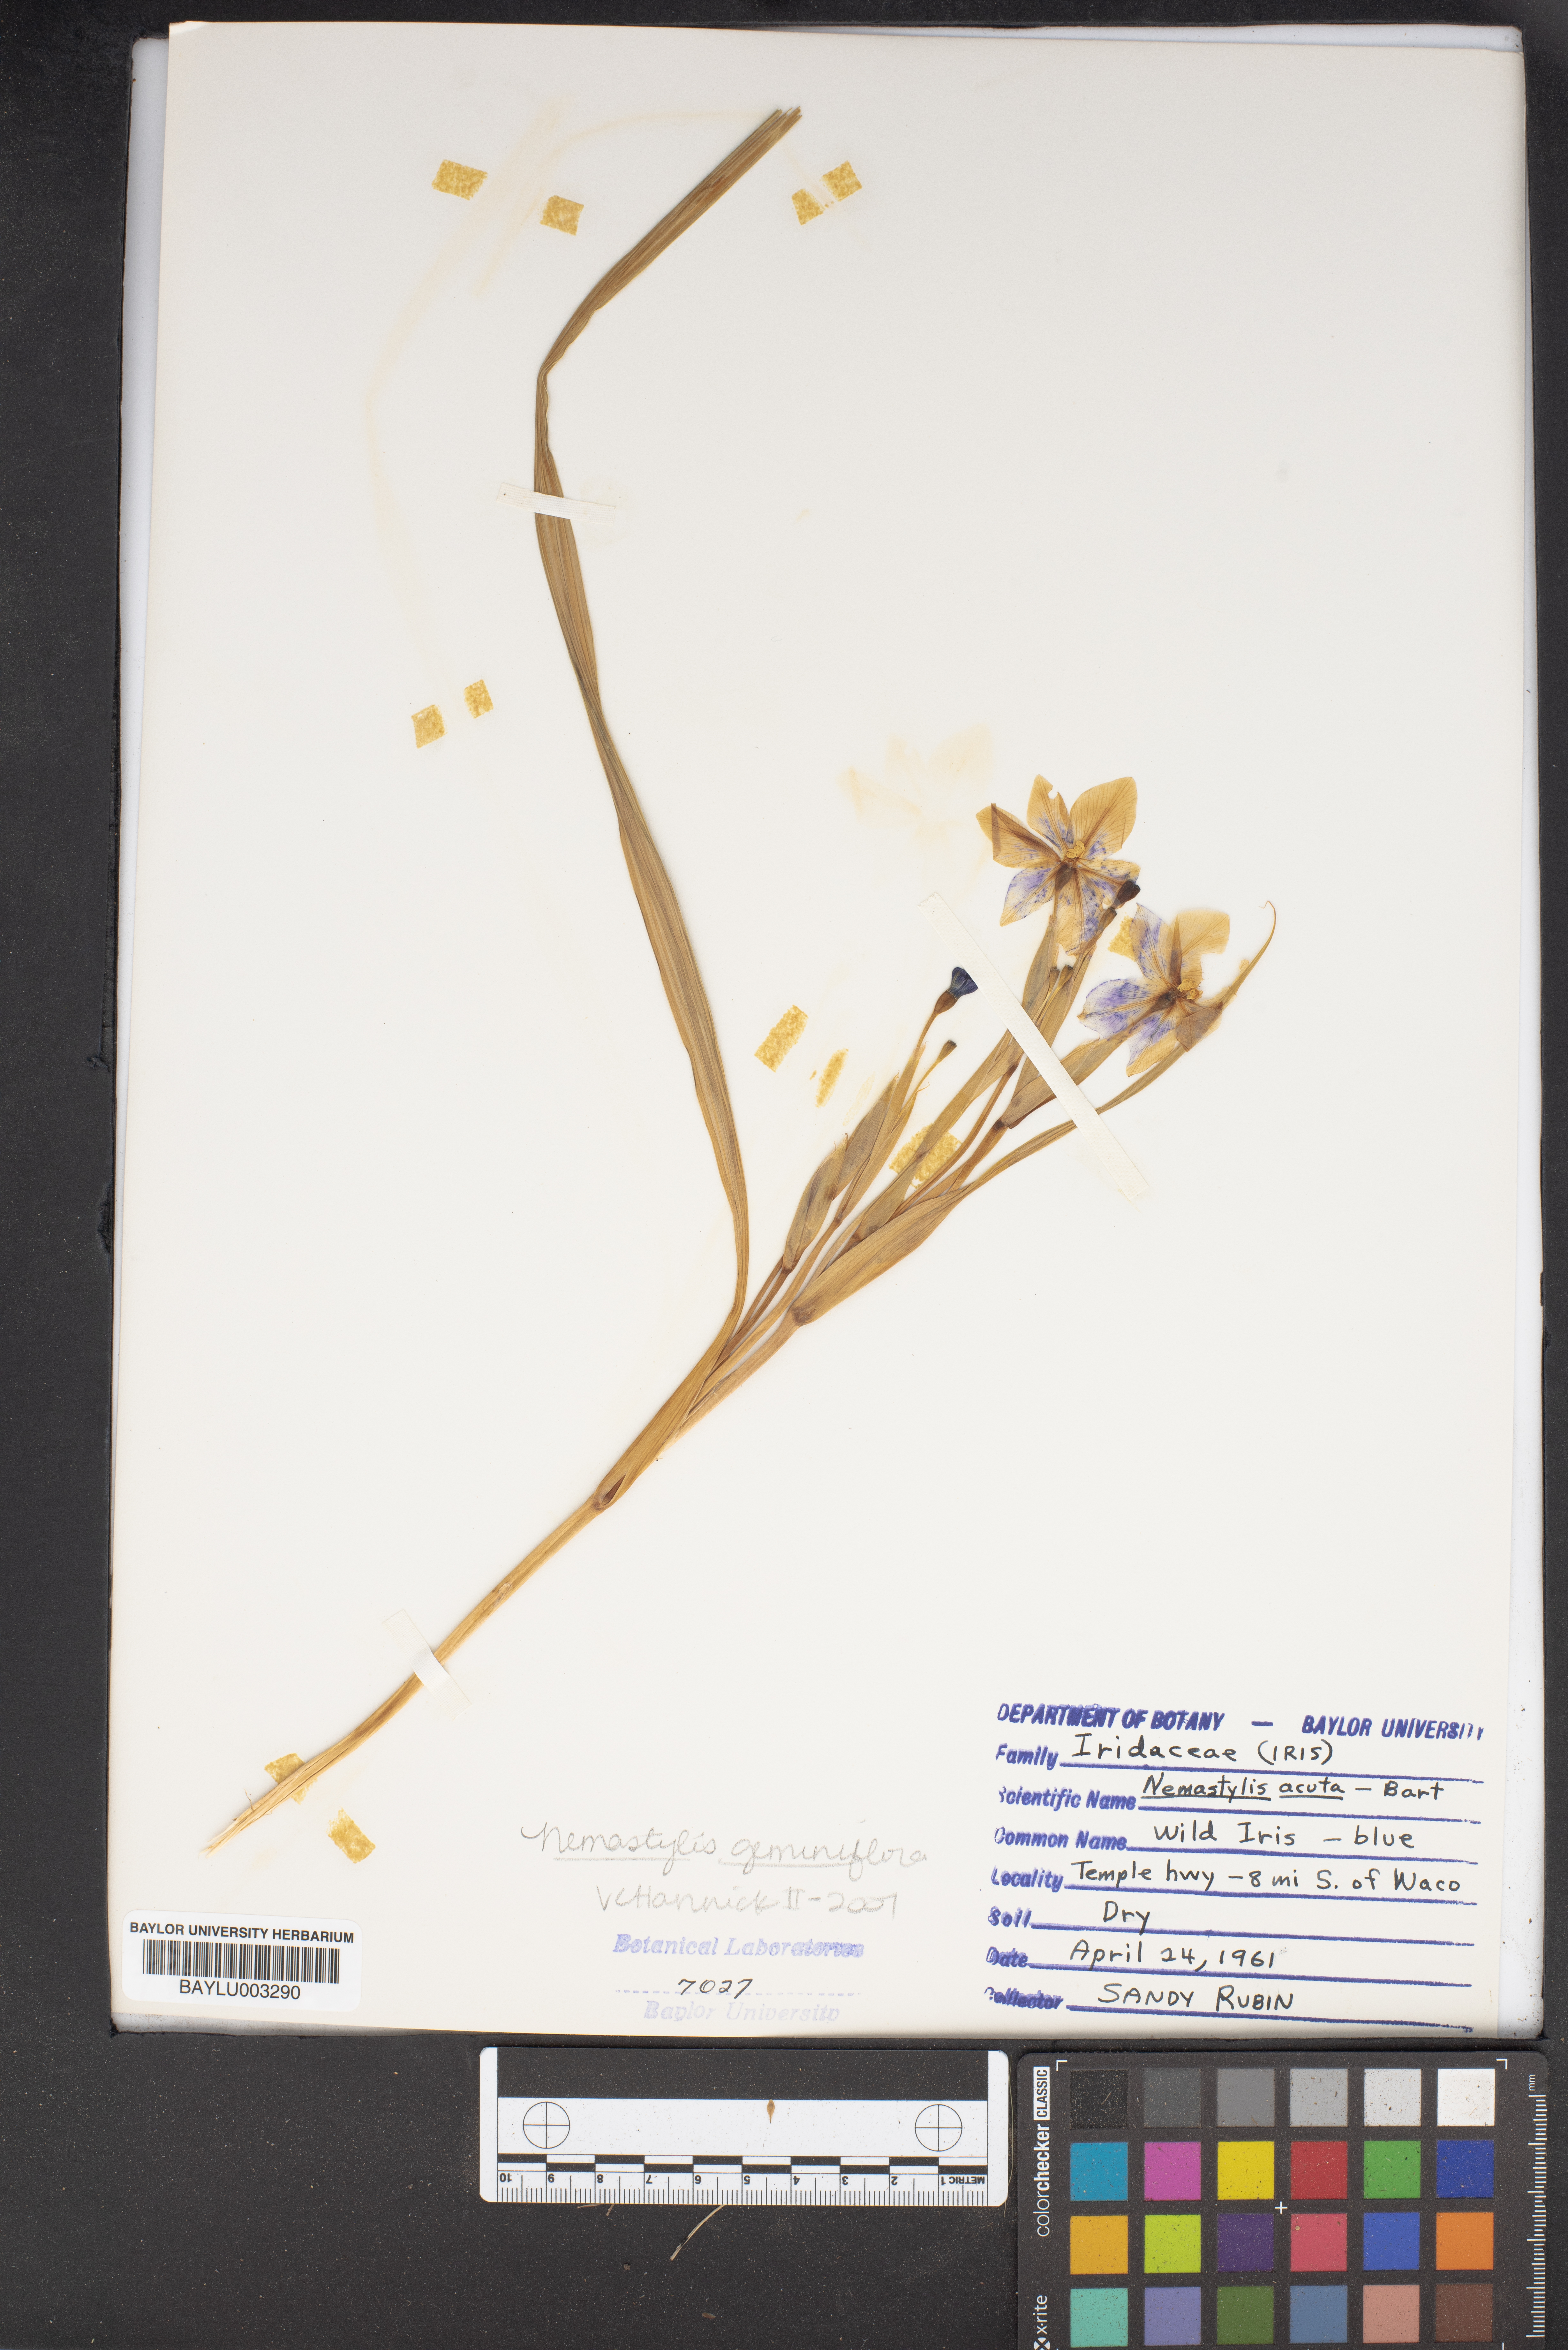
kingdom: Plantae
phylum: Tracheophyta
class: Liliopsida
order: Asparagales
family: Iridaceae
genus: Nemastylis
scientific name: Nemastylis geminiflora
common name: Prairie celestial
